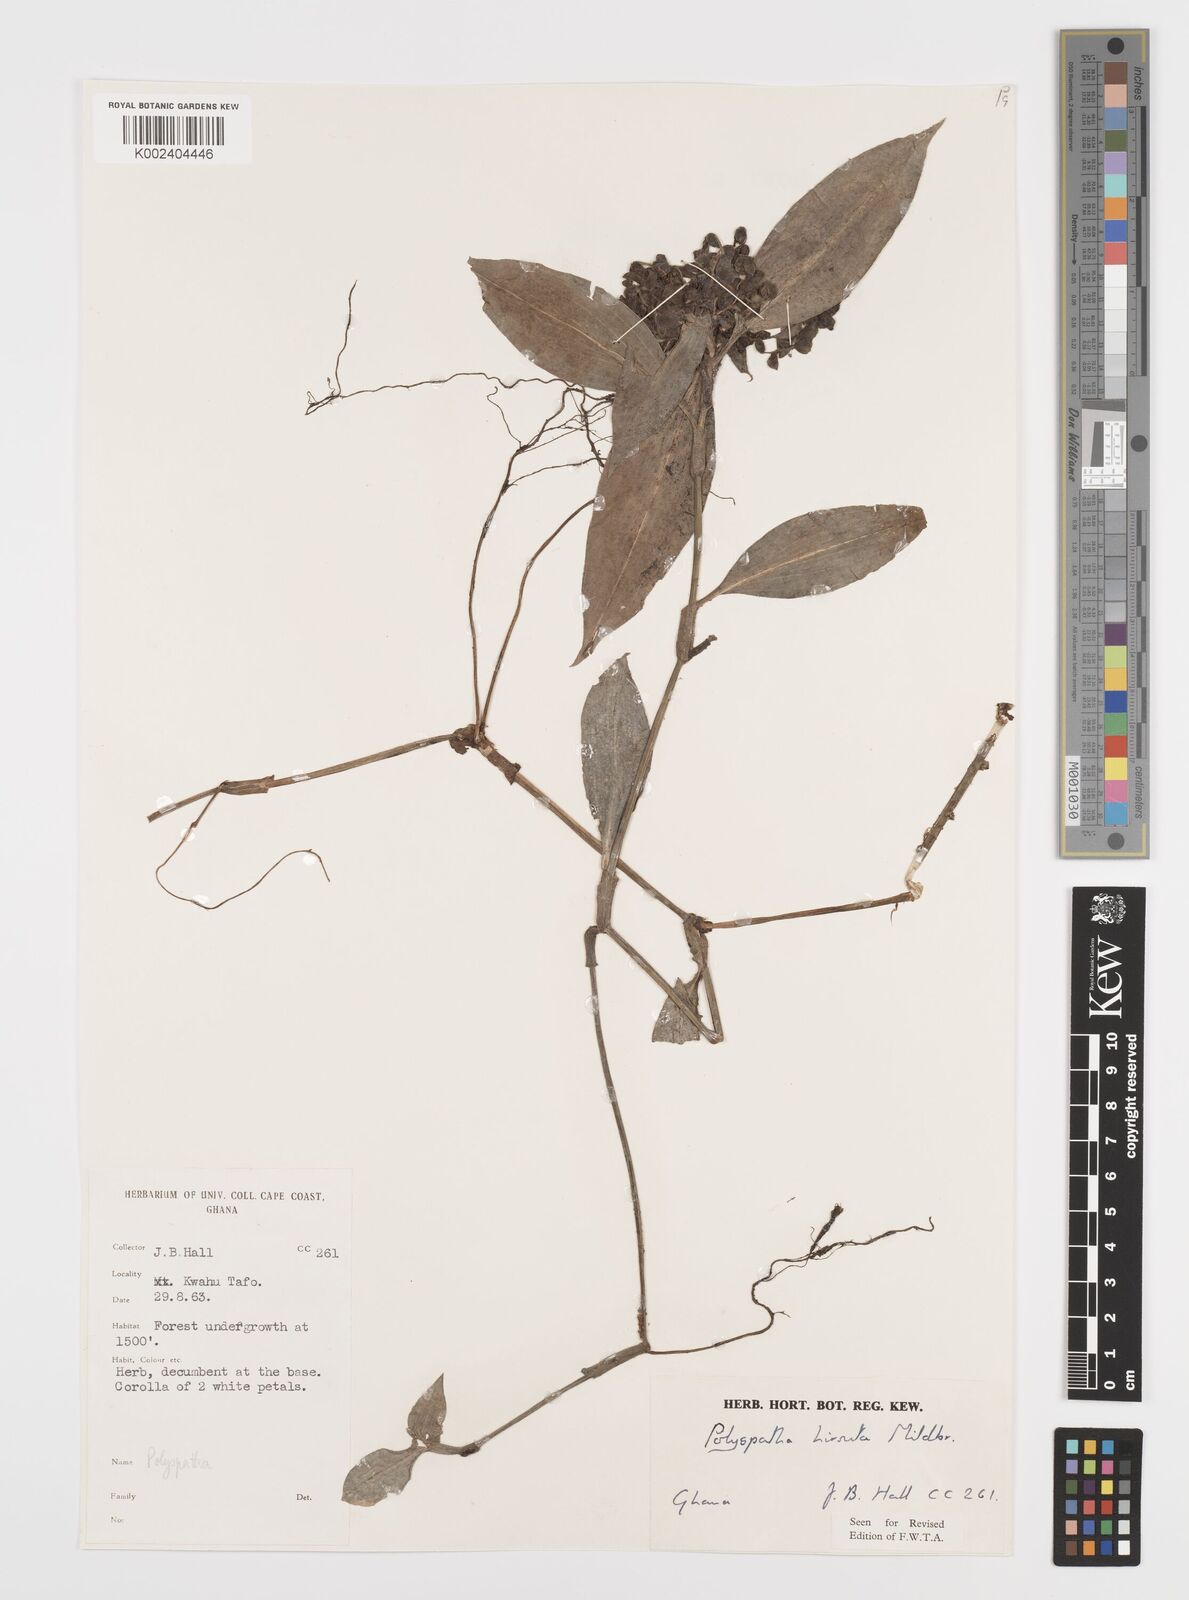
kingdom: Plantae
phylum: Tracheophyta
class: Liliopsida
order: Commelinales
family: Commelinaceae
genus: Polyspatha
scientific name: Polyspatha hirsuta
